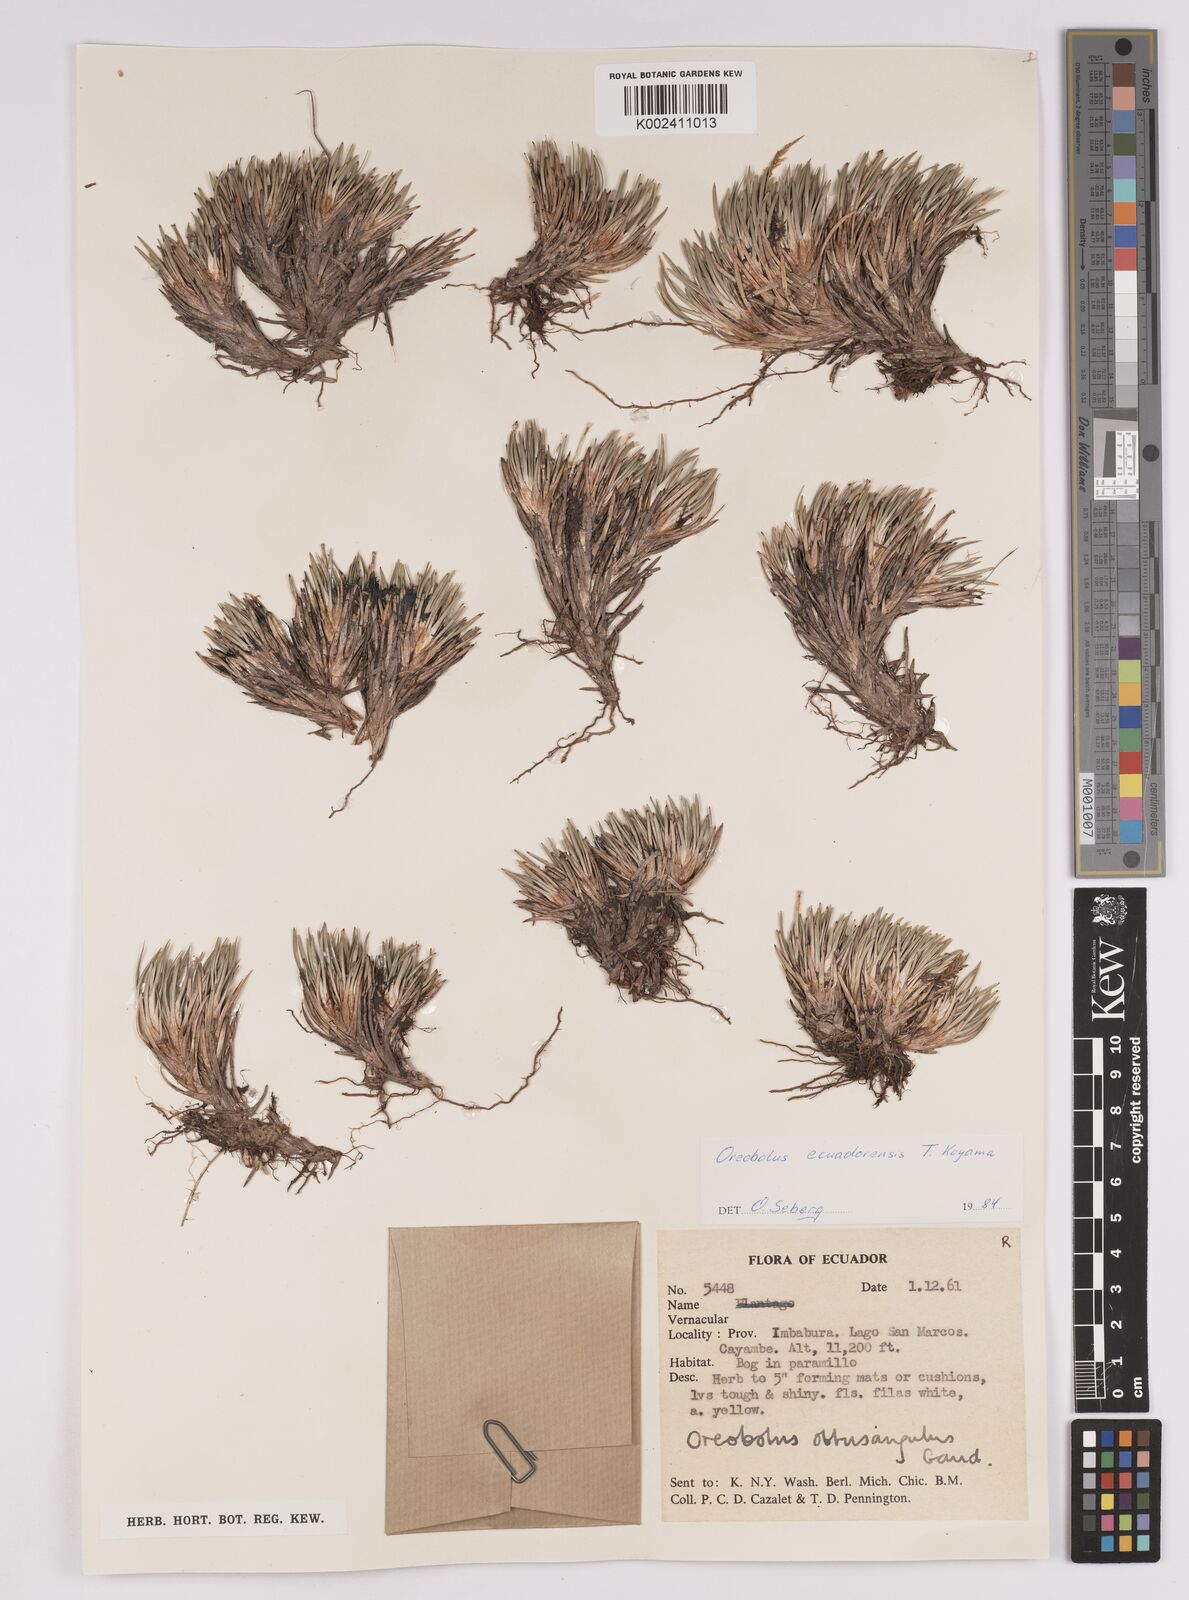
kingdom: Plantae
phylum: Tracheophyta
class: Liliopsida
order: Poales
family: Cyperaceae
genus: Oreobolus
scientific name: Oreobolus obtusangulus
